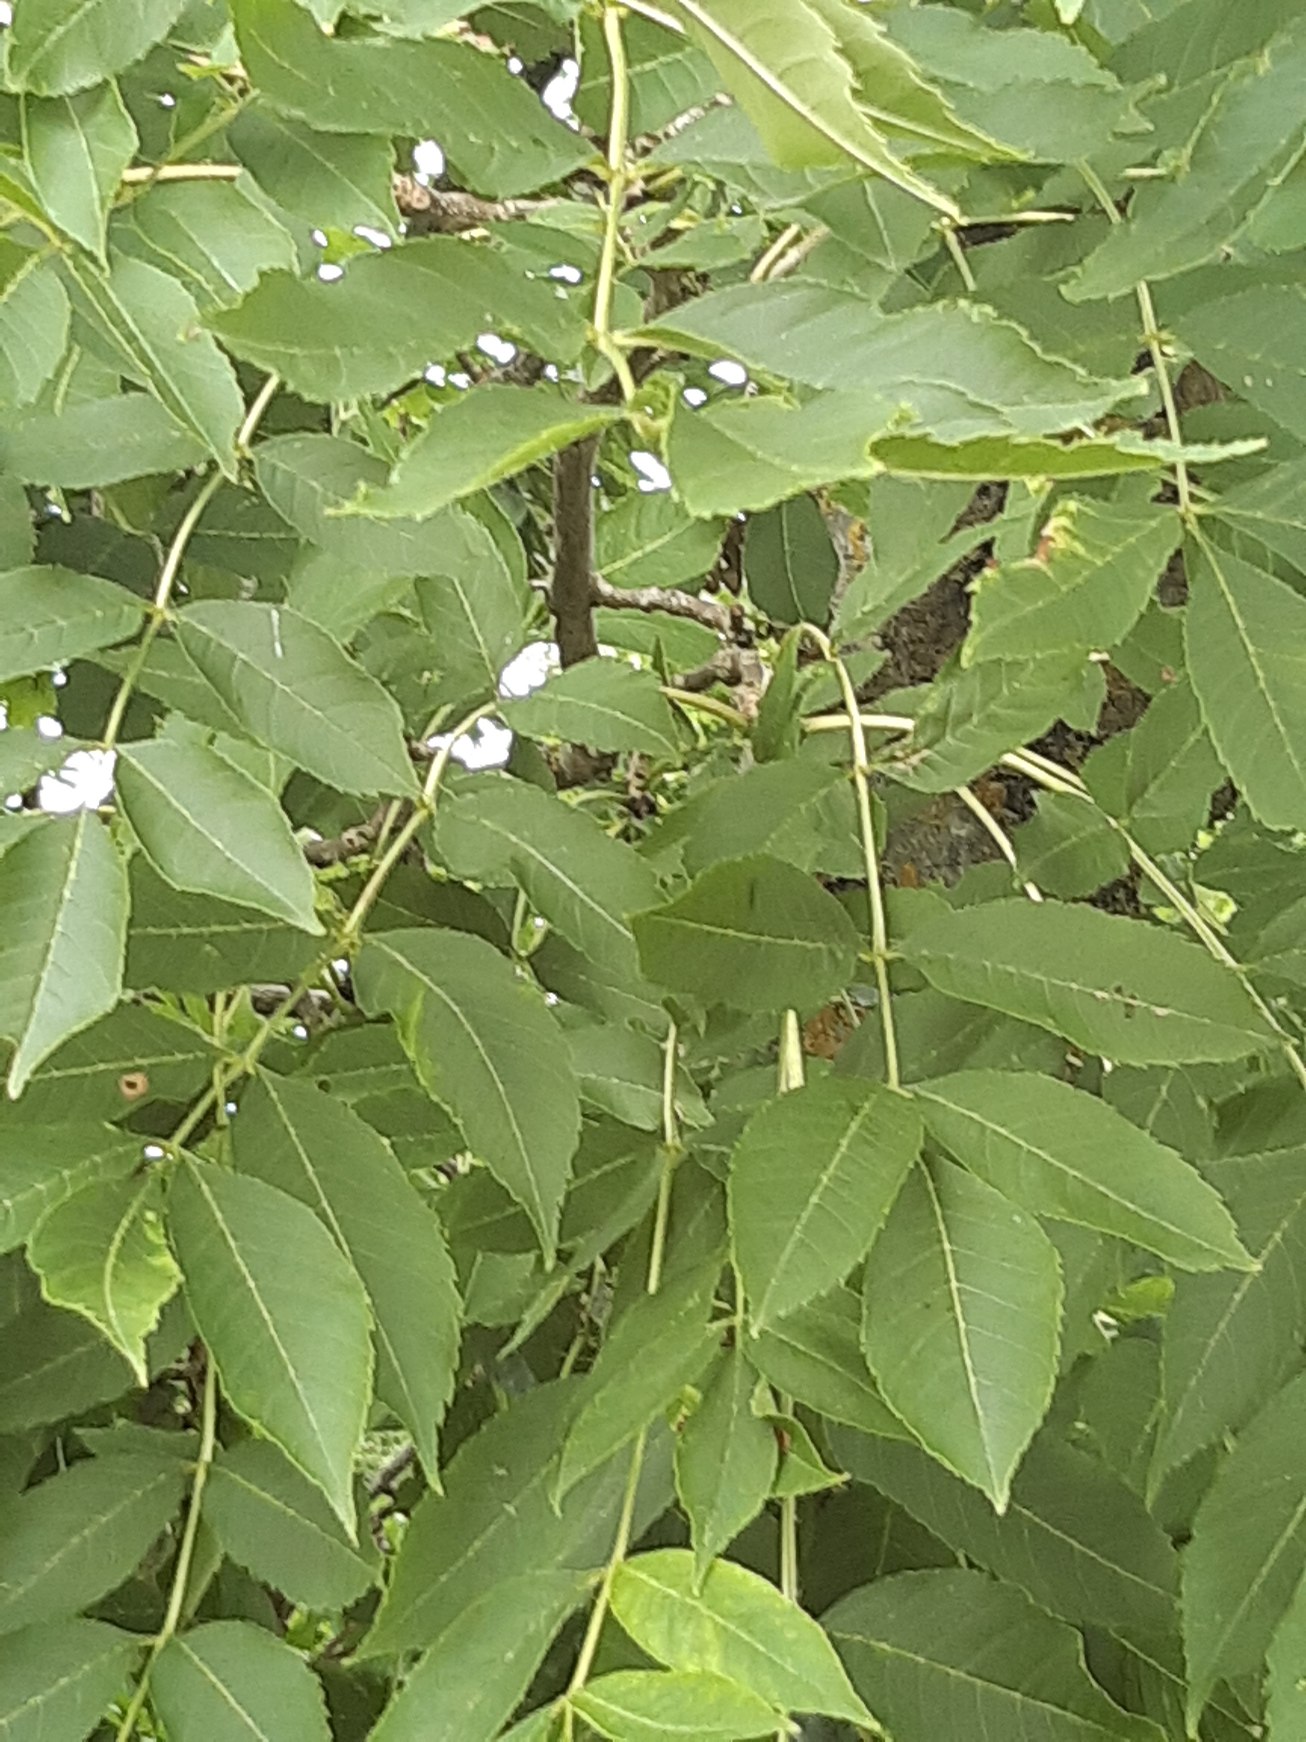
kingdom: Plantae
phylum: Tracheophyta
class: Magnoliopsida
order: Lamiales
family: Oleaceae
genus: Fraxinus
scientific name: Fraxinus excelsior
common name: Ask
